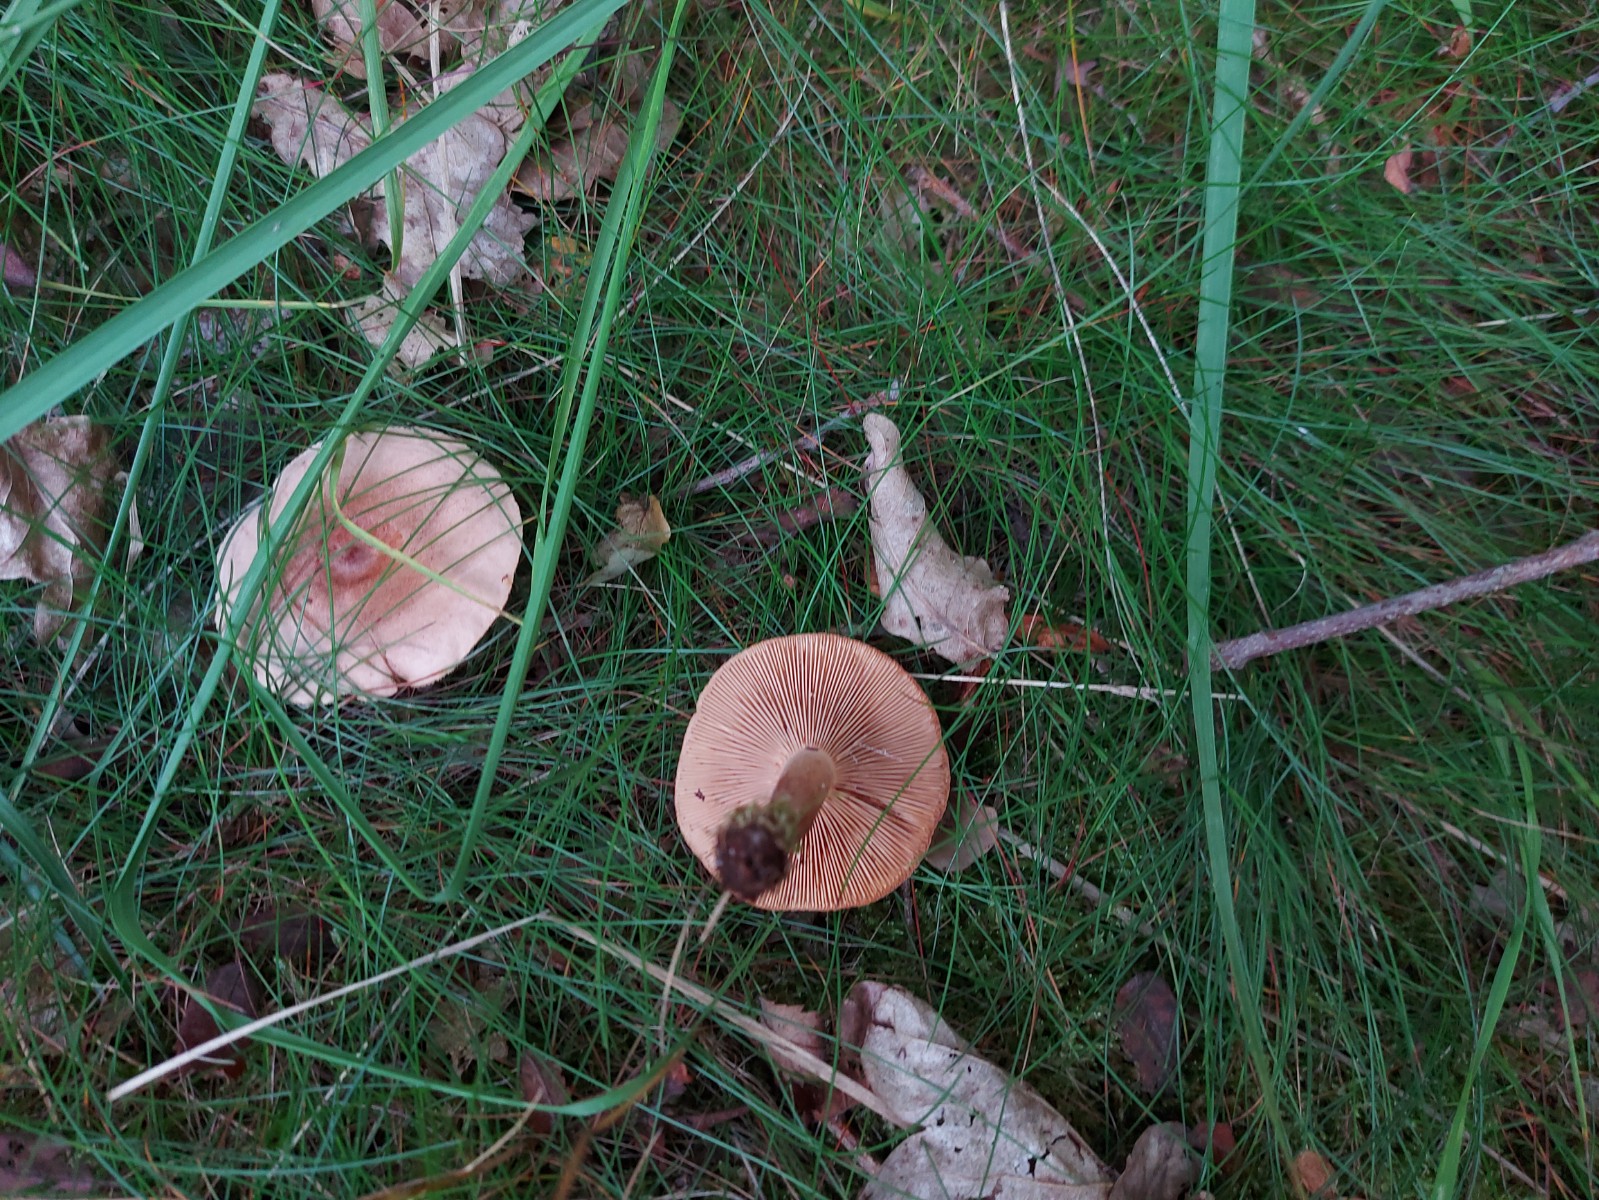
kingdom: Fungi
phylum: Basidiomycota
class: Agaricomycetes
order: Russulales
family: Russulaceae
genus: Lactarius
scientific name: Lactarius quietus
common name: ege-mælkehat
